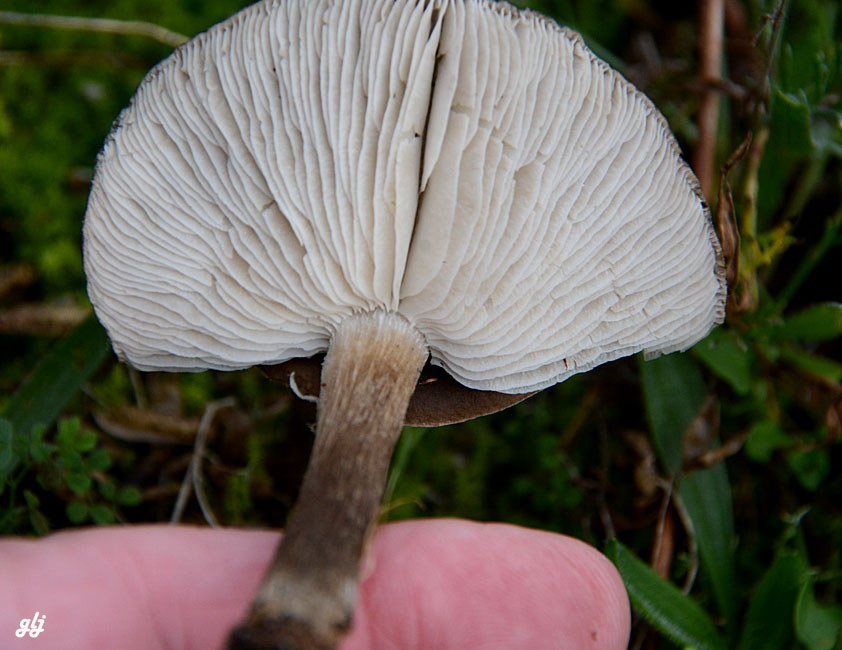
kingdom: Fungi
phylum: Basidiomycota
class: Agaricomycetes
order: Agaricales
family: Tricholomataceae
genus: Melanoleuca
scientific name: Melanoleuca
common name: munkehat
